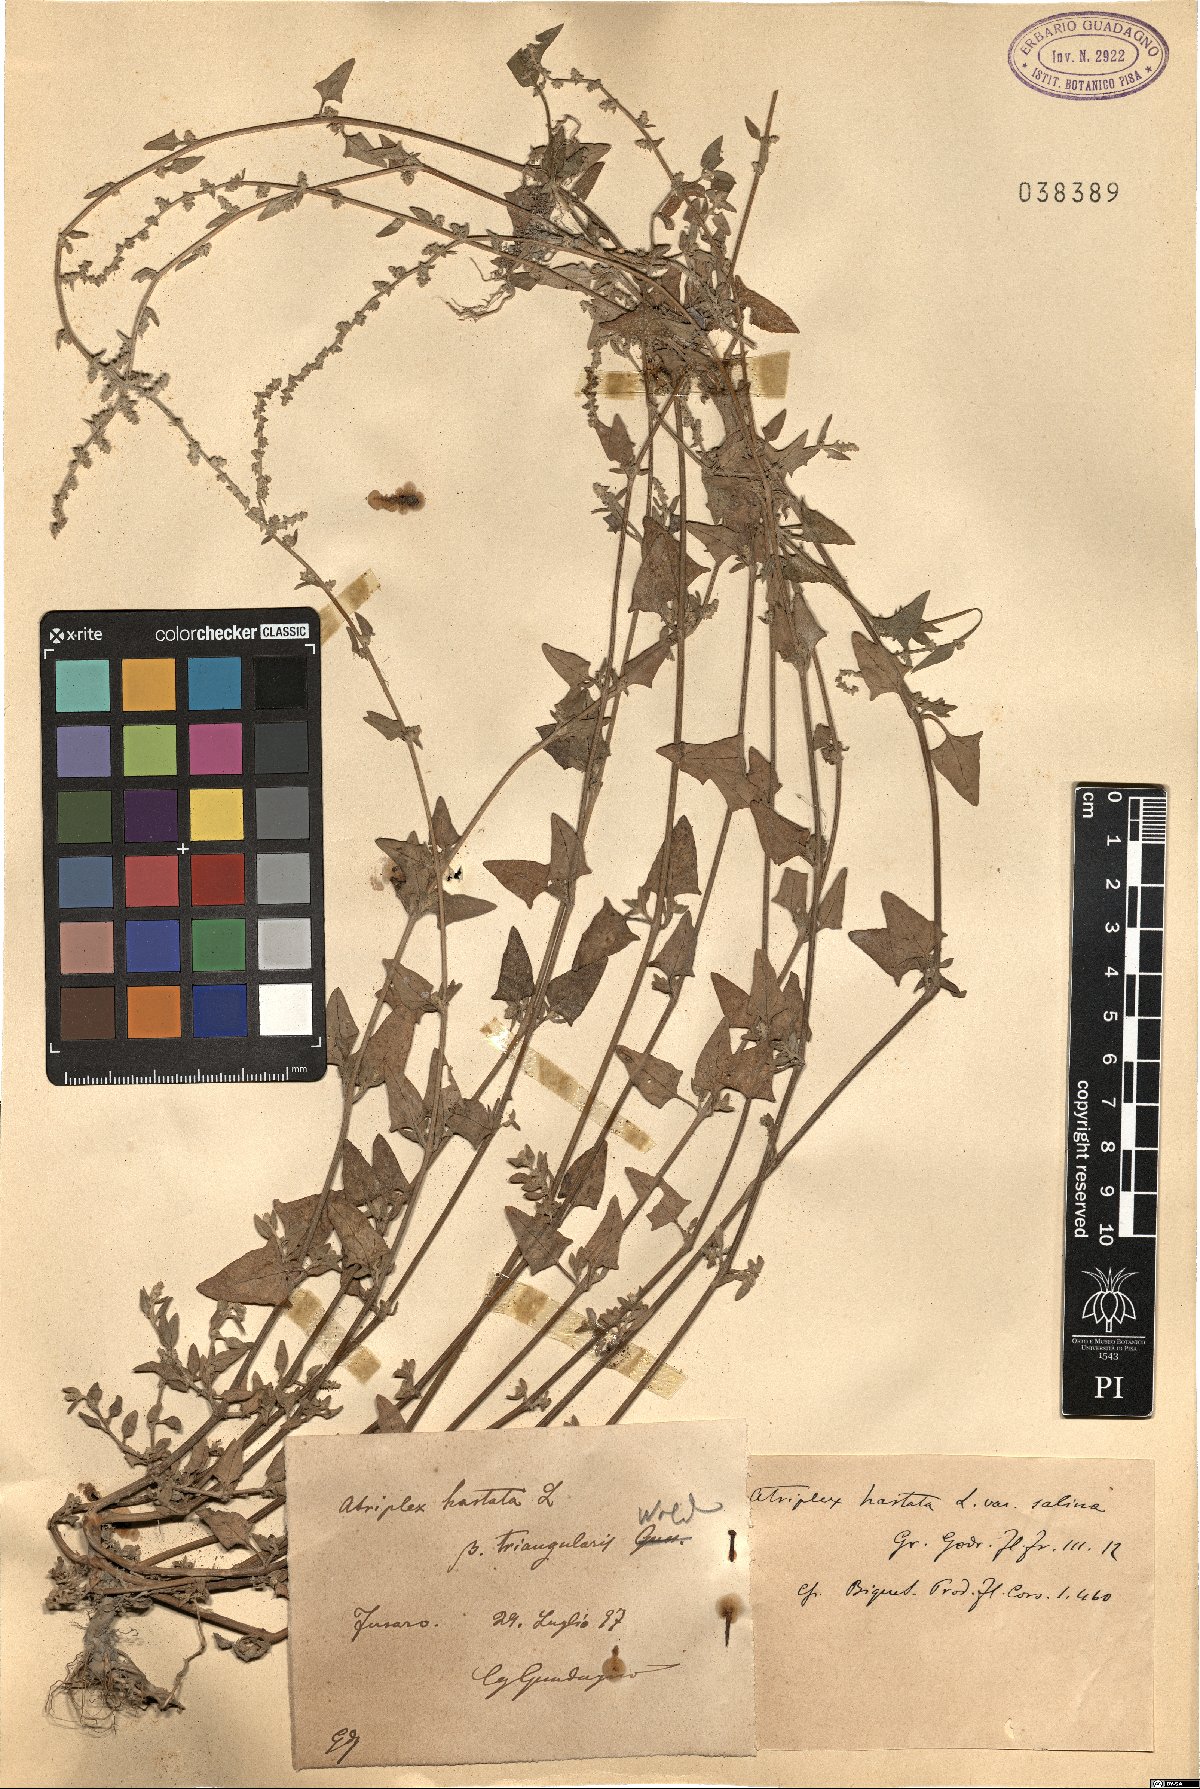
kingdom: Plantae
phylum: Tracheophyta
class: Magnoliopsida
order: Caryophyllales
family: Amaranthaceae
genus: Atriplex
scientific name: Atriplex prostrata
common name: Spear-leaved orache
